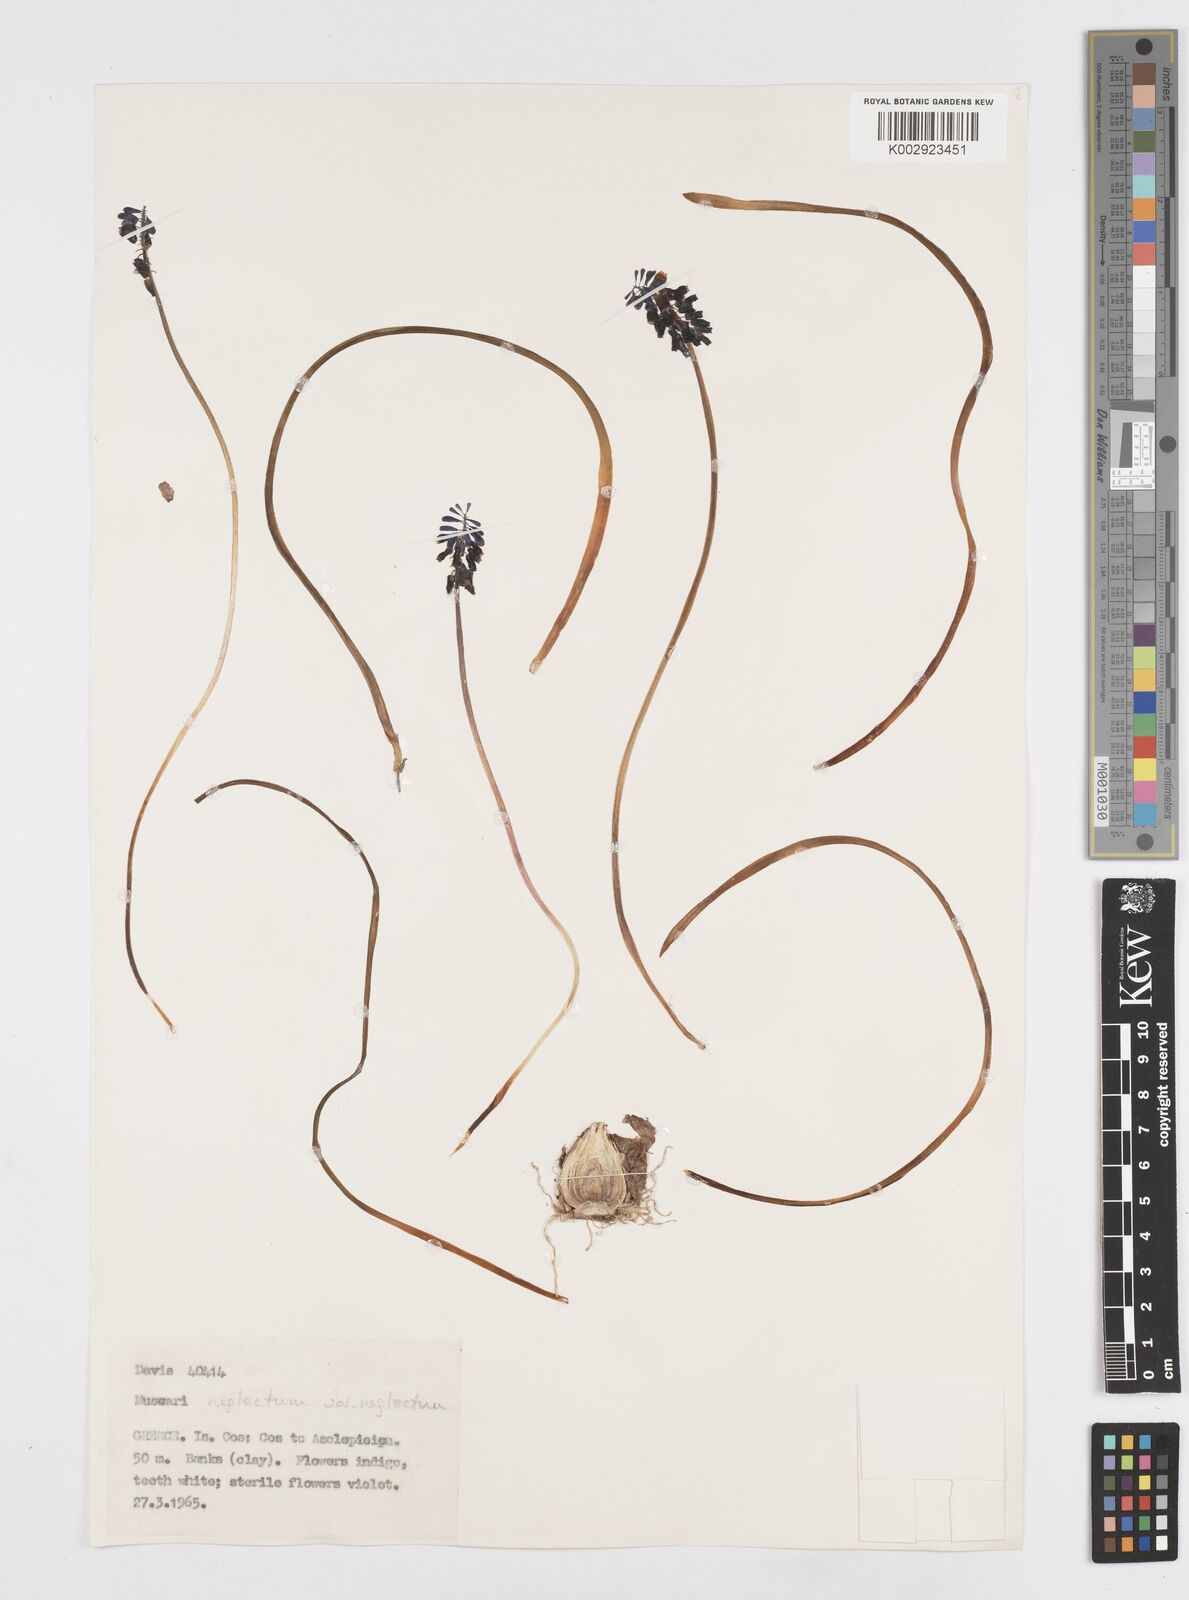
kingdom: Plantae
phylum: Tracheophyta
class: Liliopsida
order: Asparagales
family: Asparagaceae
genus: Muscari
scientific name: Muscari neglectum
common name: Grape-hyacinth
